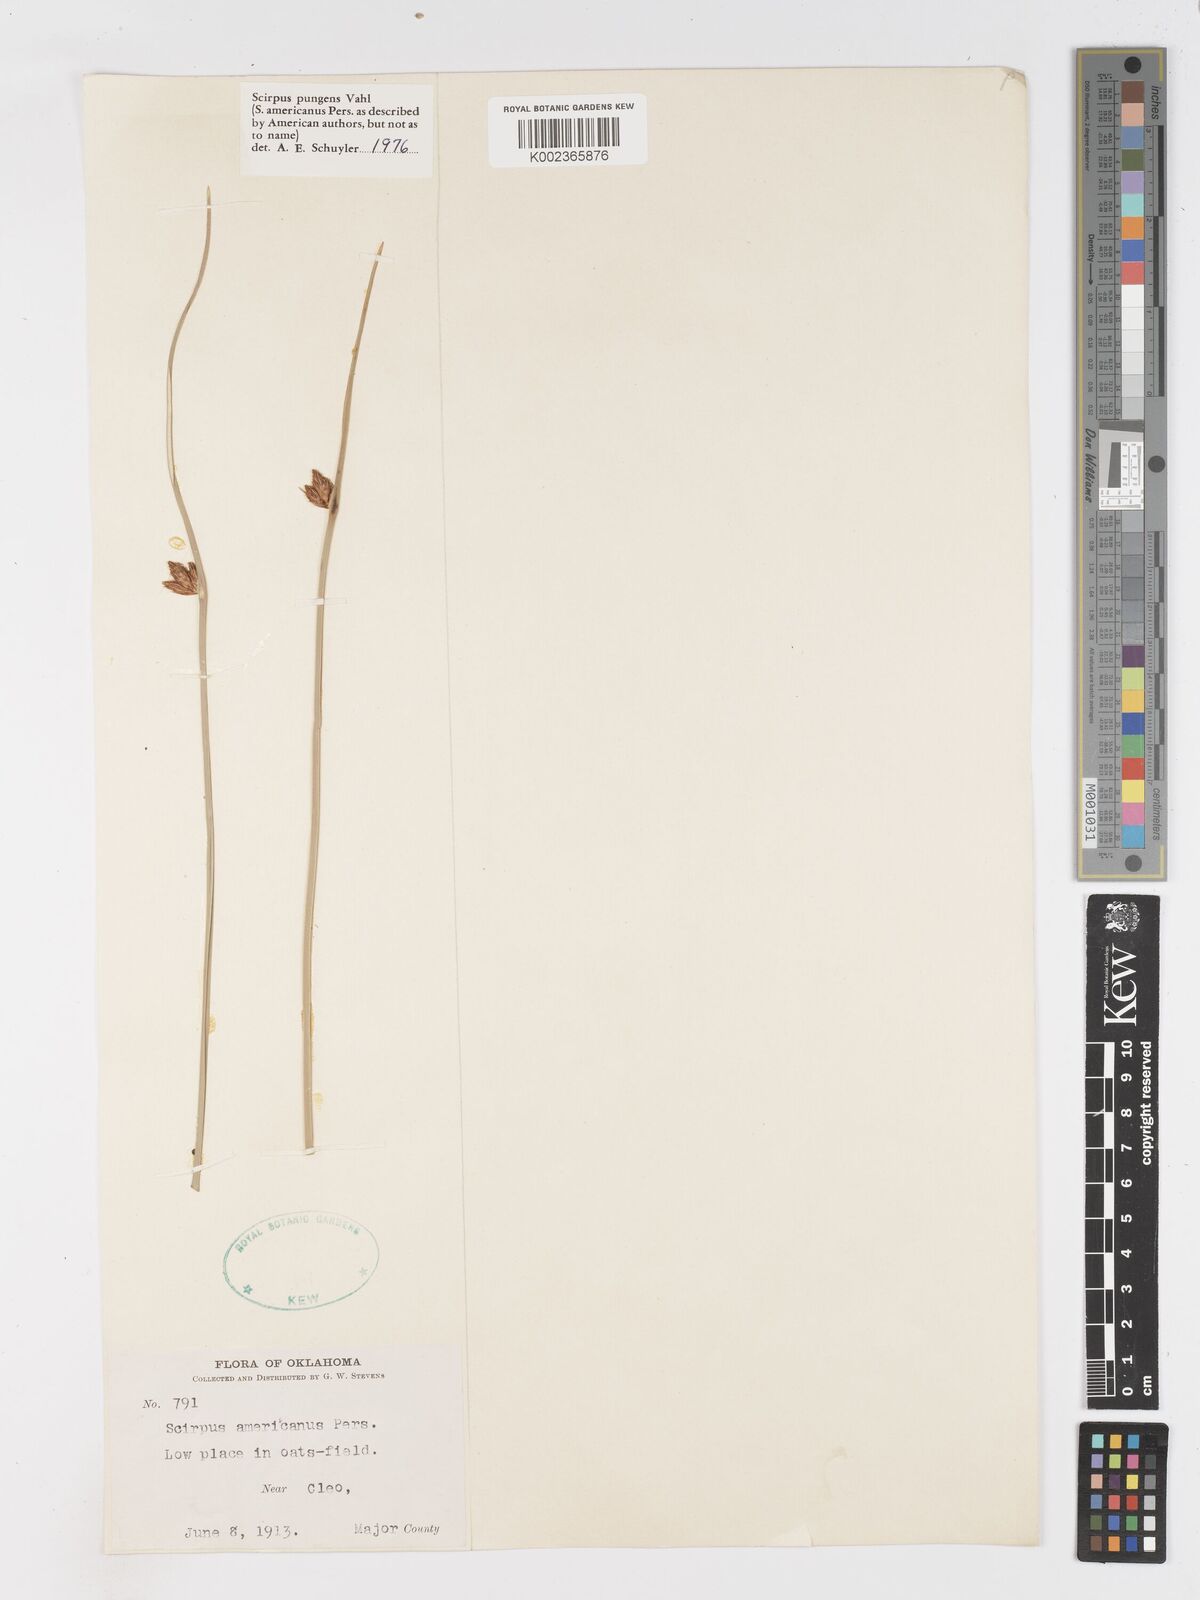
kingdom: Plantae
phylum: Tracheophyta
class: Liliopsida
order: Poales
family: Cyperaceae
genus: Schoenoplectus
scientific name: Schoenoplectus pungens
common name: Sharp club-rush
